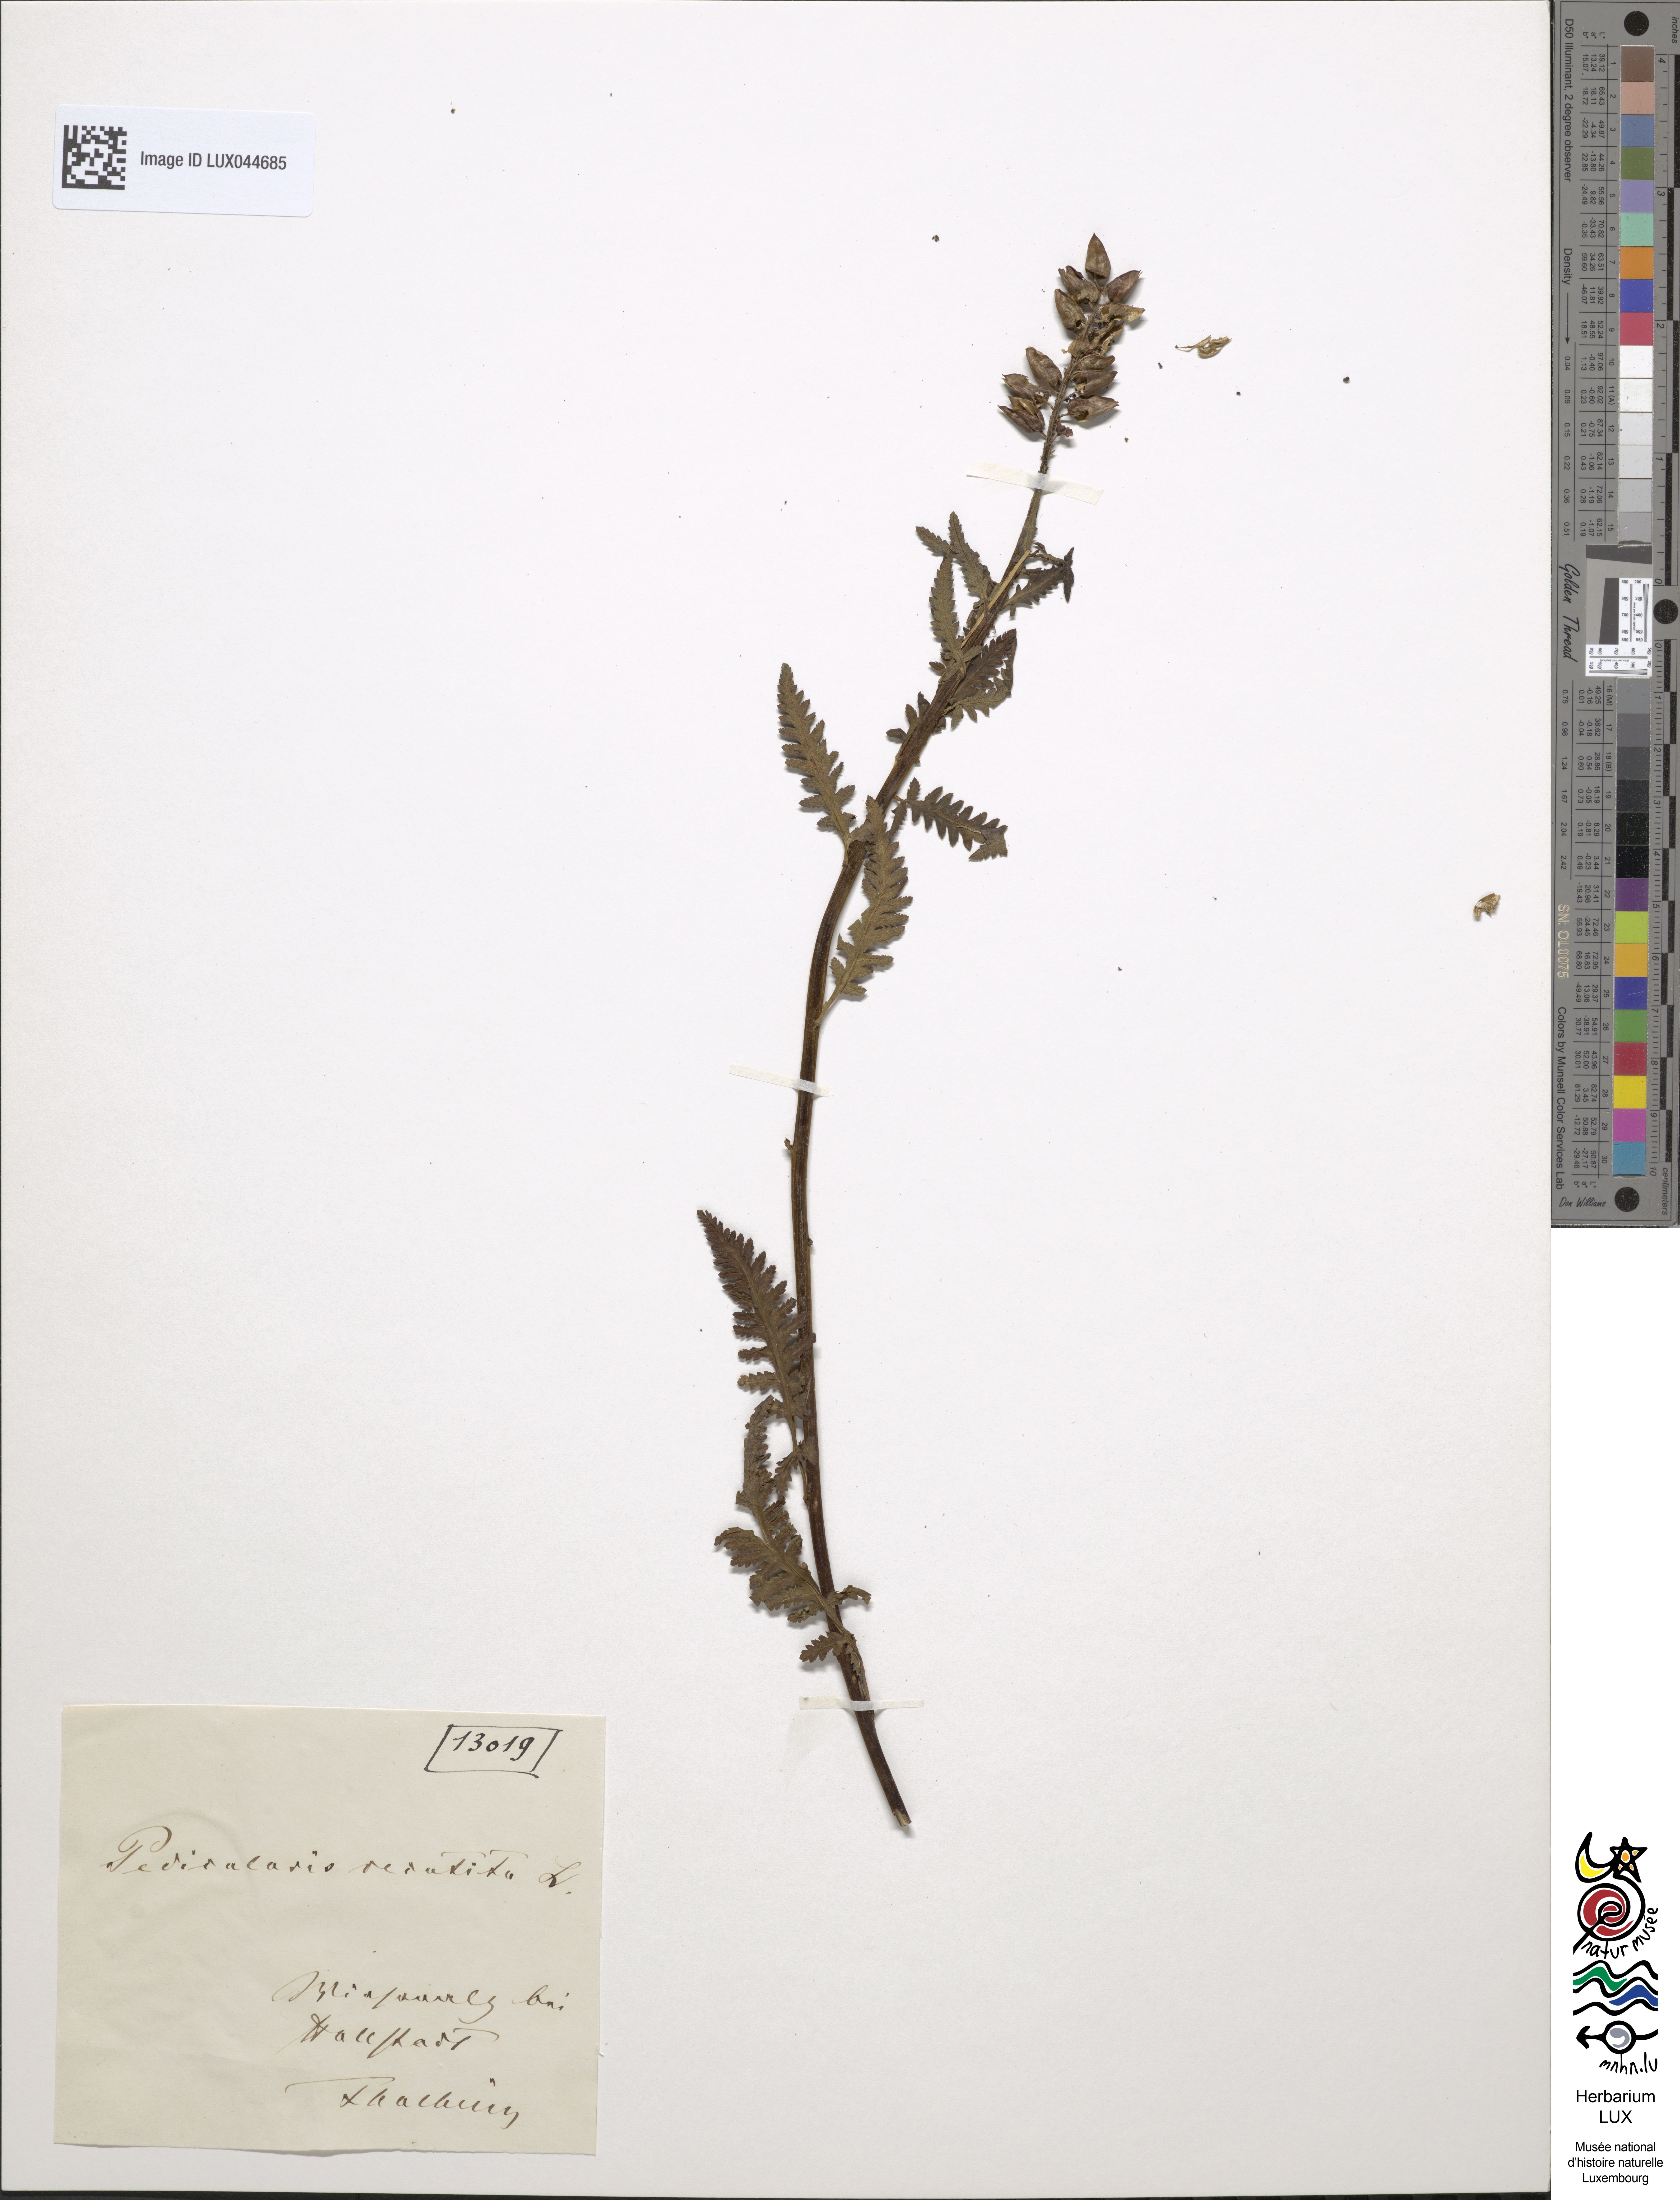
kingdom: Plantae
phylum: Tracheophyta
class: Magnoliopsida
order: Lamiales
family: Orobanchaceae
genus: Pedicularis
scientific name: Pedicularis recutita
